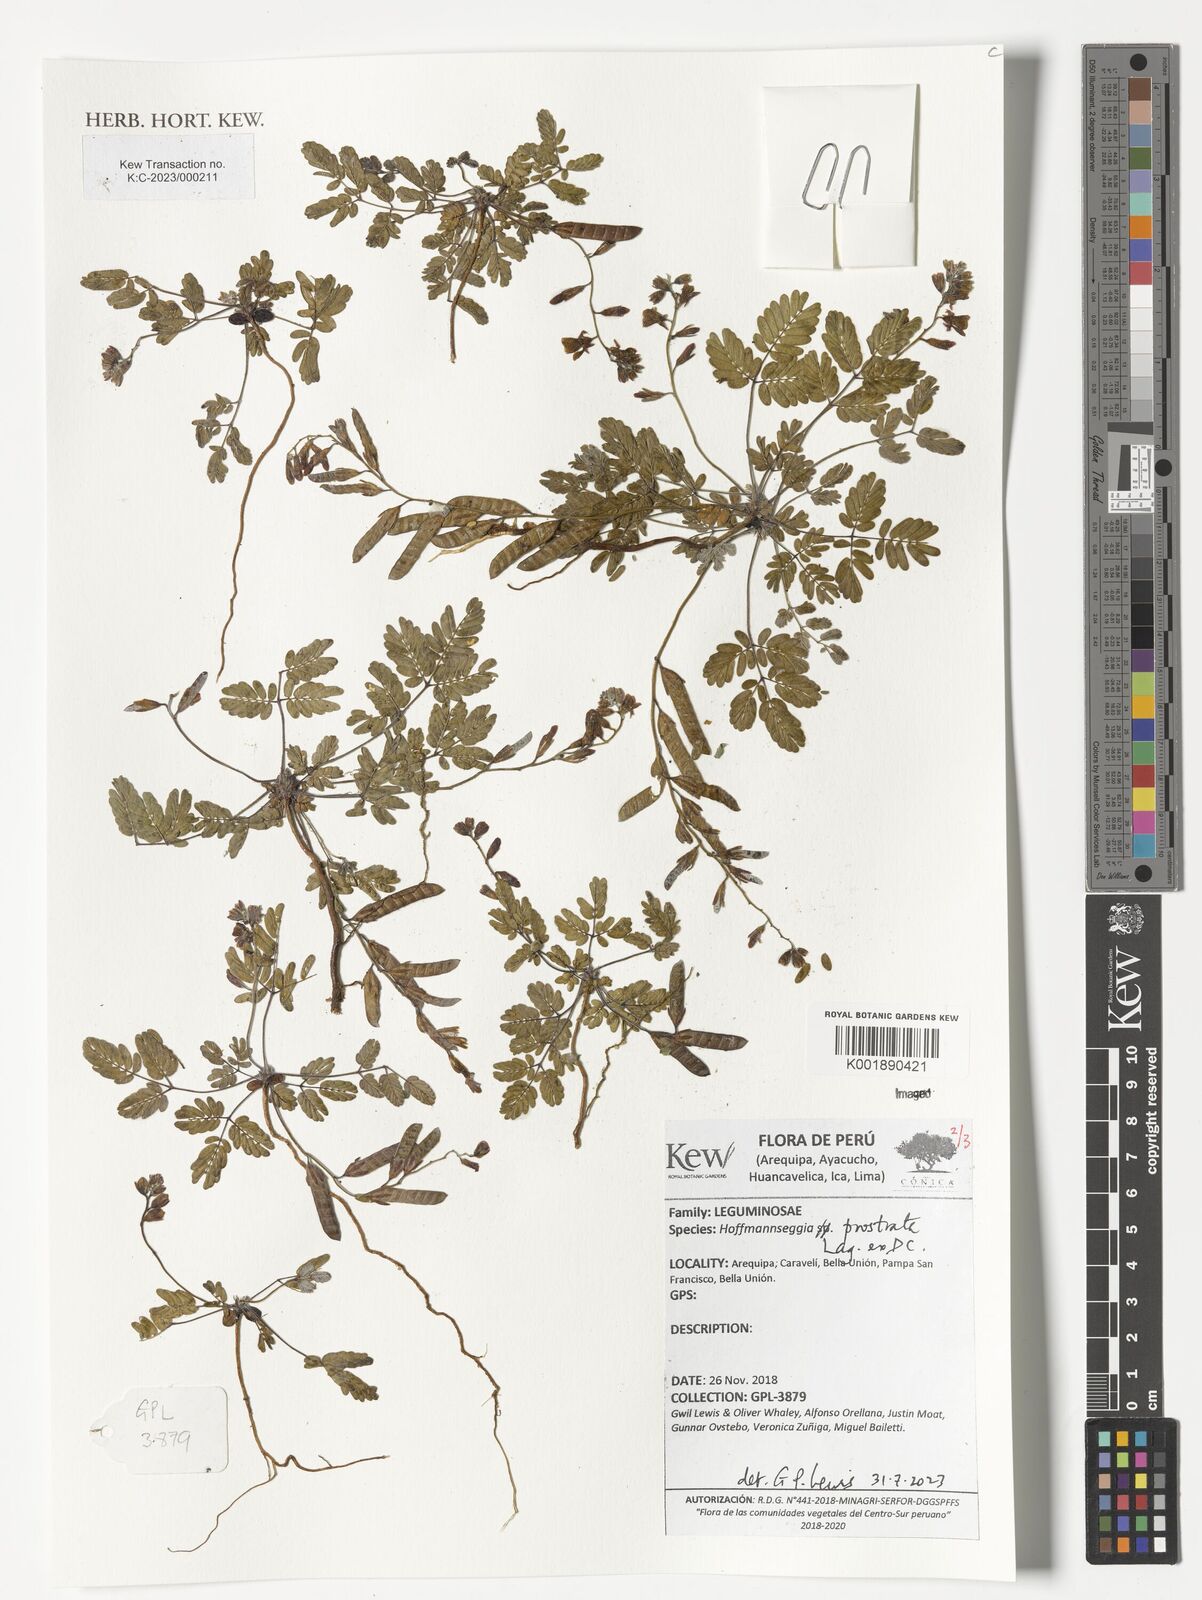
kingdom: Plantae
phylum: Tracheophyta
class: Magnoliopsida
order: Fabales
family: Fabaceae
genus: Hoffmannseggia
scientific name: Hoffmannseggia prostrata
